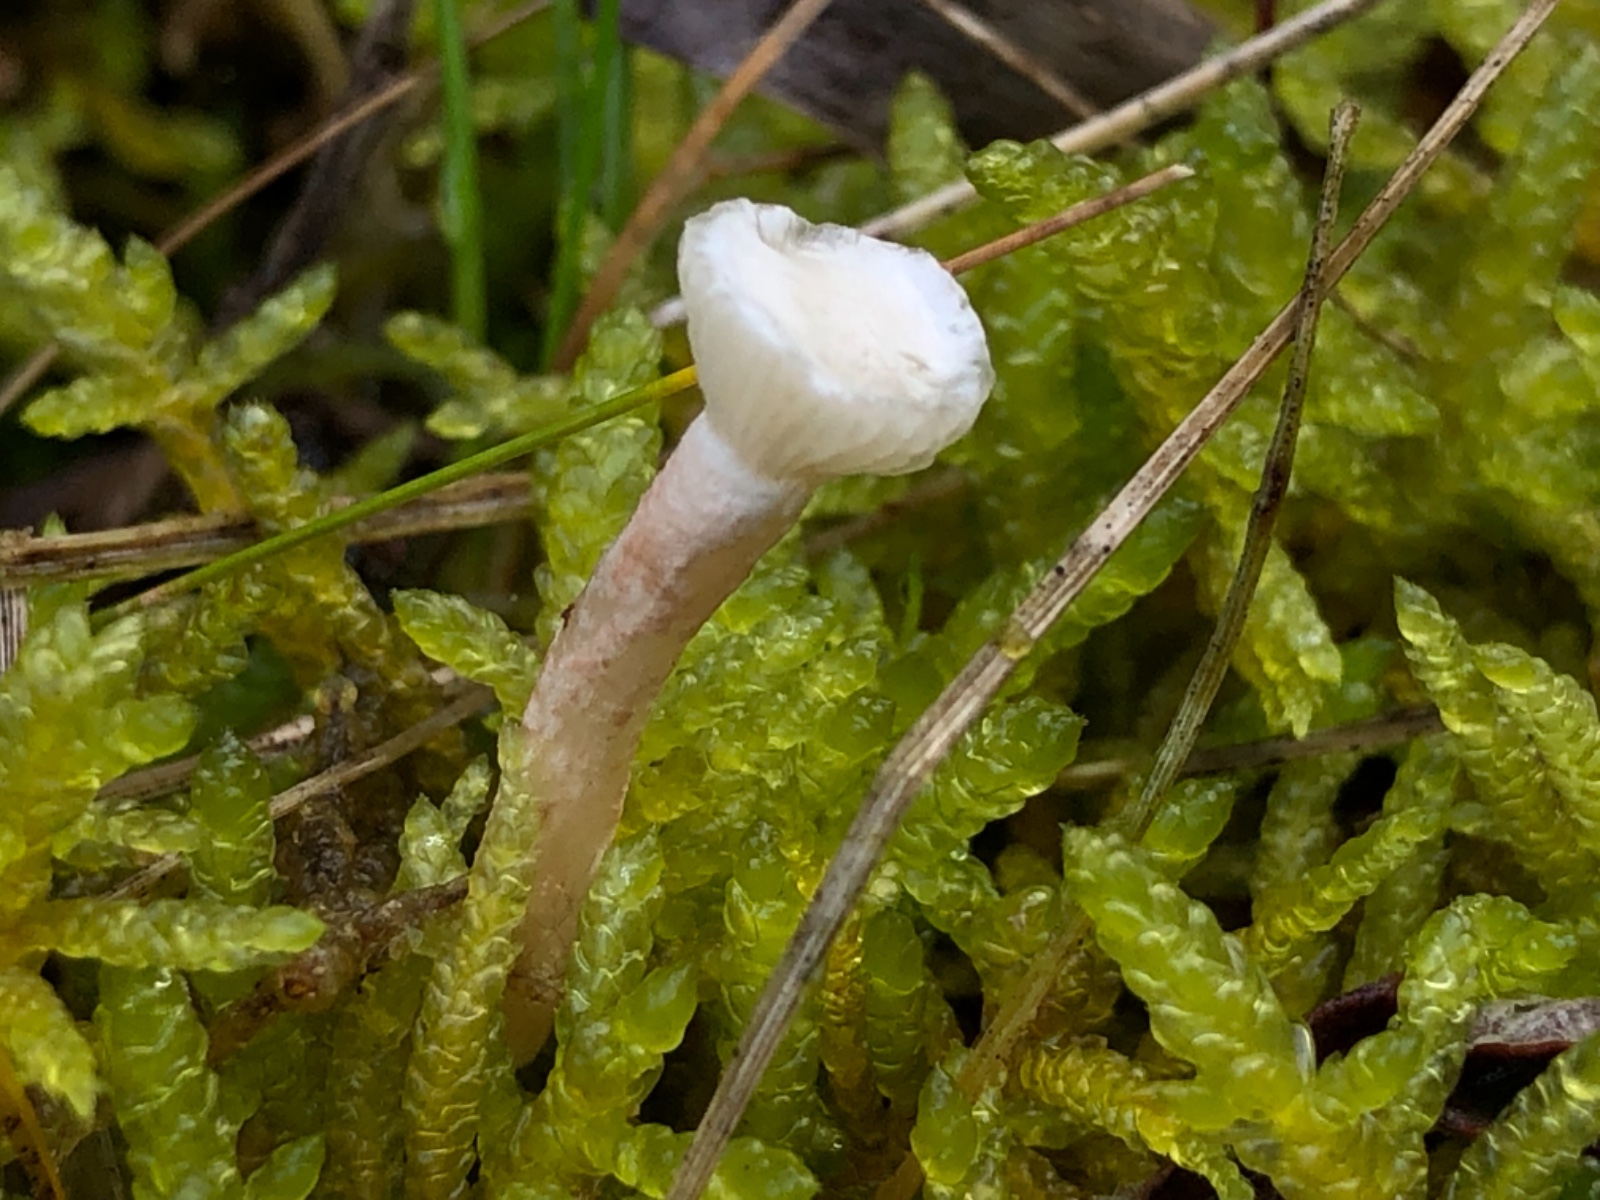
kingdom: Fungi
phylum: Basidiomycota
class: Agaricomycetes
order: Agaricales
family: Tricholomataceae
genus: Ripartites
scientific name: Ripartites
